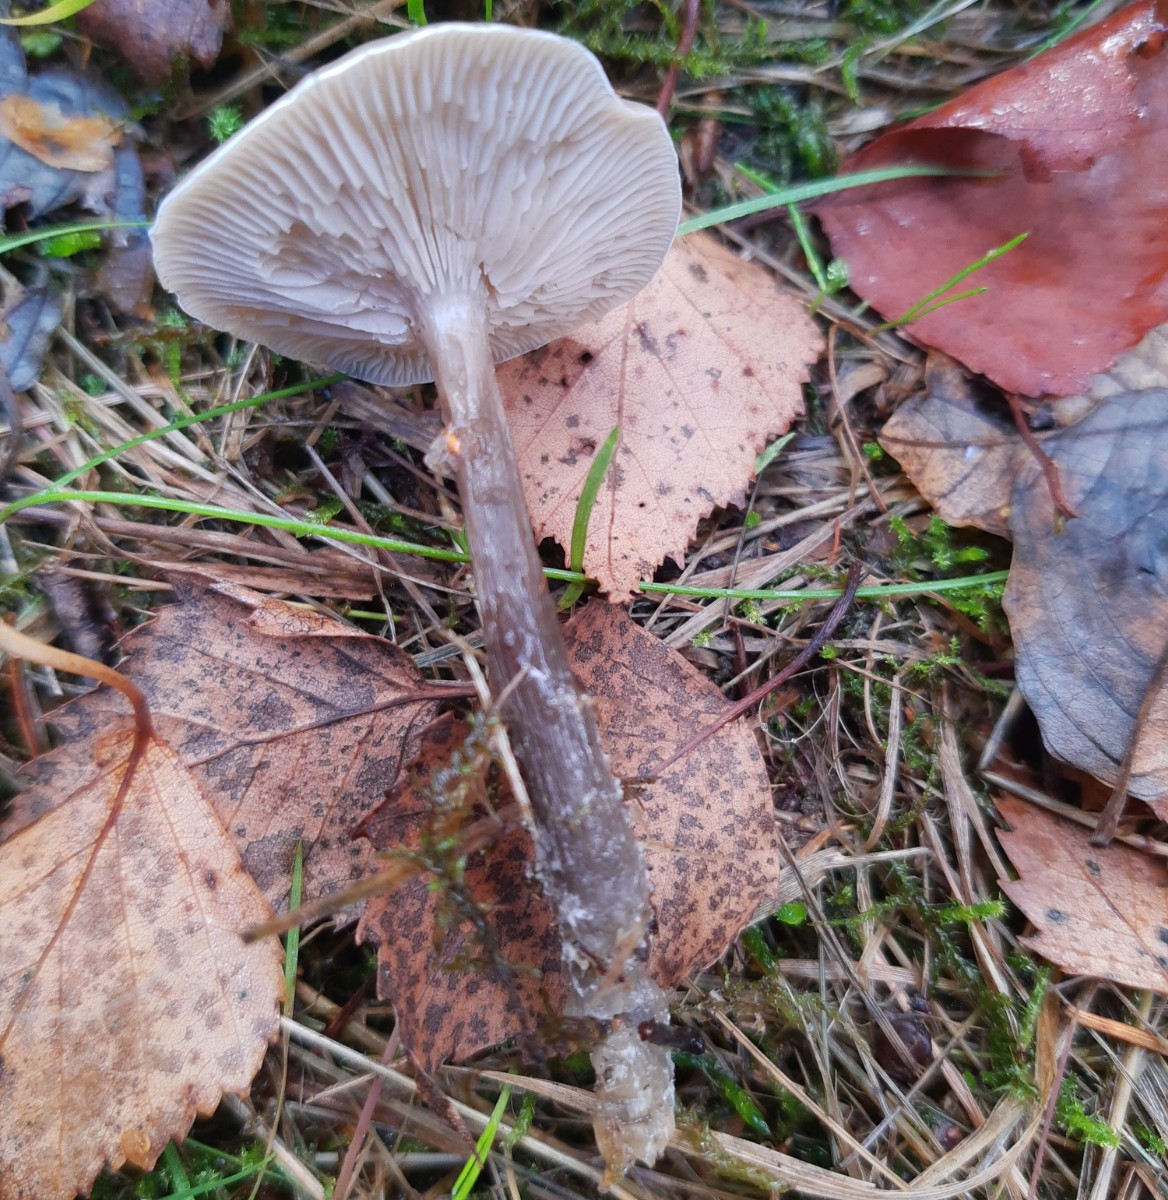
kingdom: Fungi
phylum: Basidiomycota
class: Agaricomycetes
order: Agaricales
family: Pseudoclitocybaceae
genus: Pseudoclitocybe
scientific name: Pseudoclitocybe cyathiformis
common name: almindelig bægertragthat
